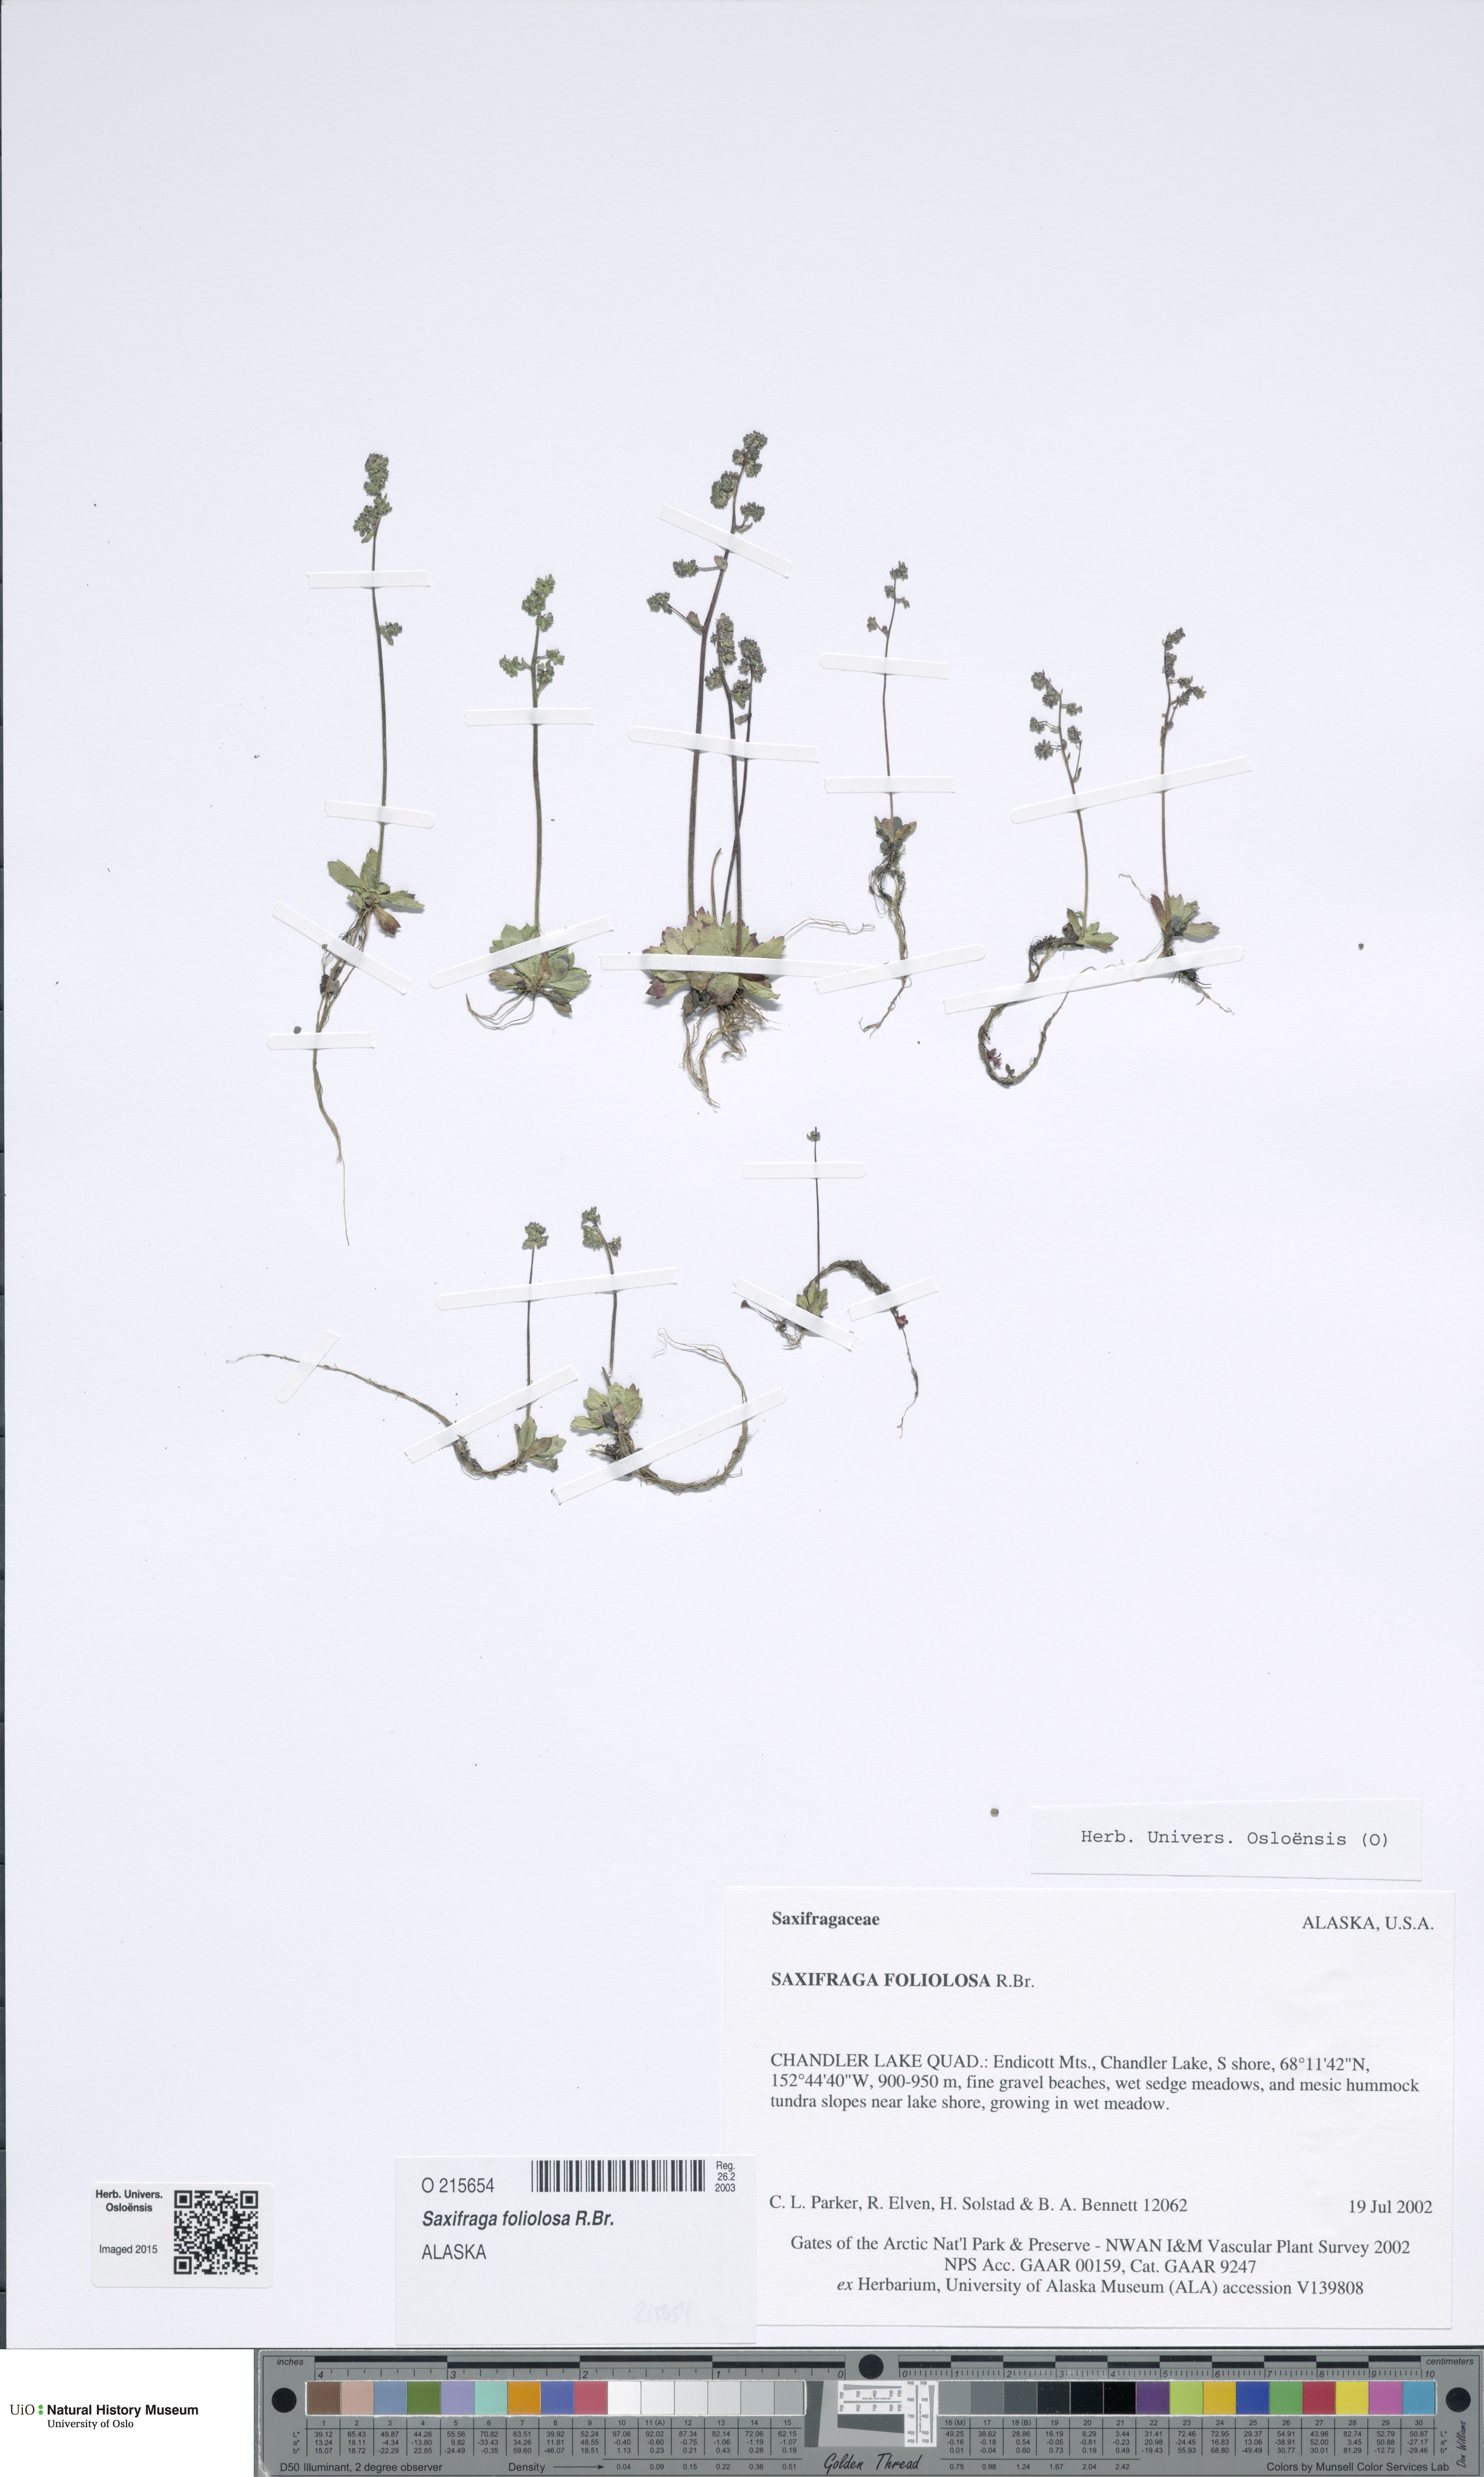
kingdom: Plantae
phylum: Tracheophyta
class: Magnoliopsida
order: Saxifragales
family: Saxifragaceae
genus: Micranthes
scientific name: Micranthes foliolosa
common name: Leafystem saxifrage
